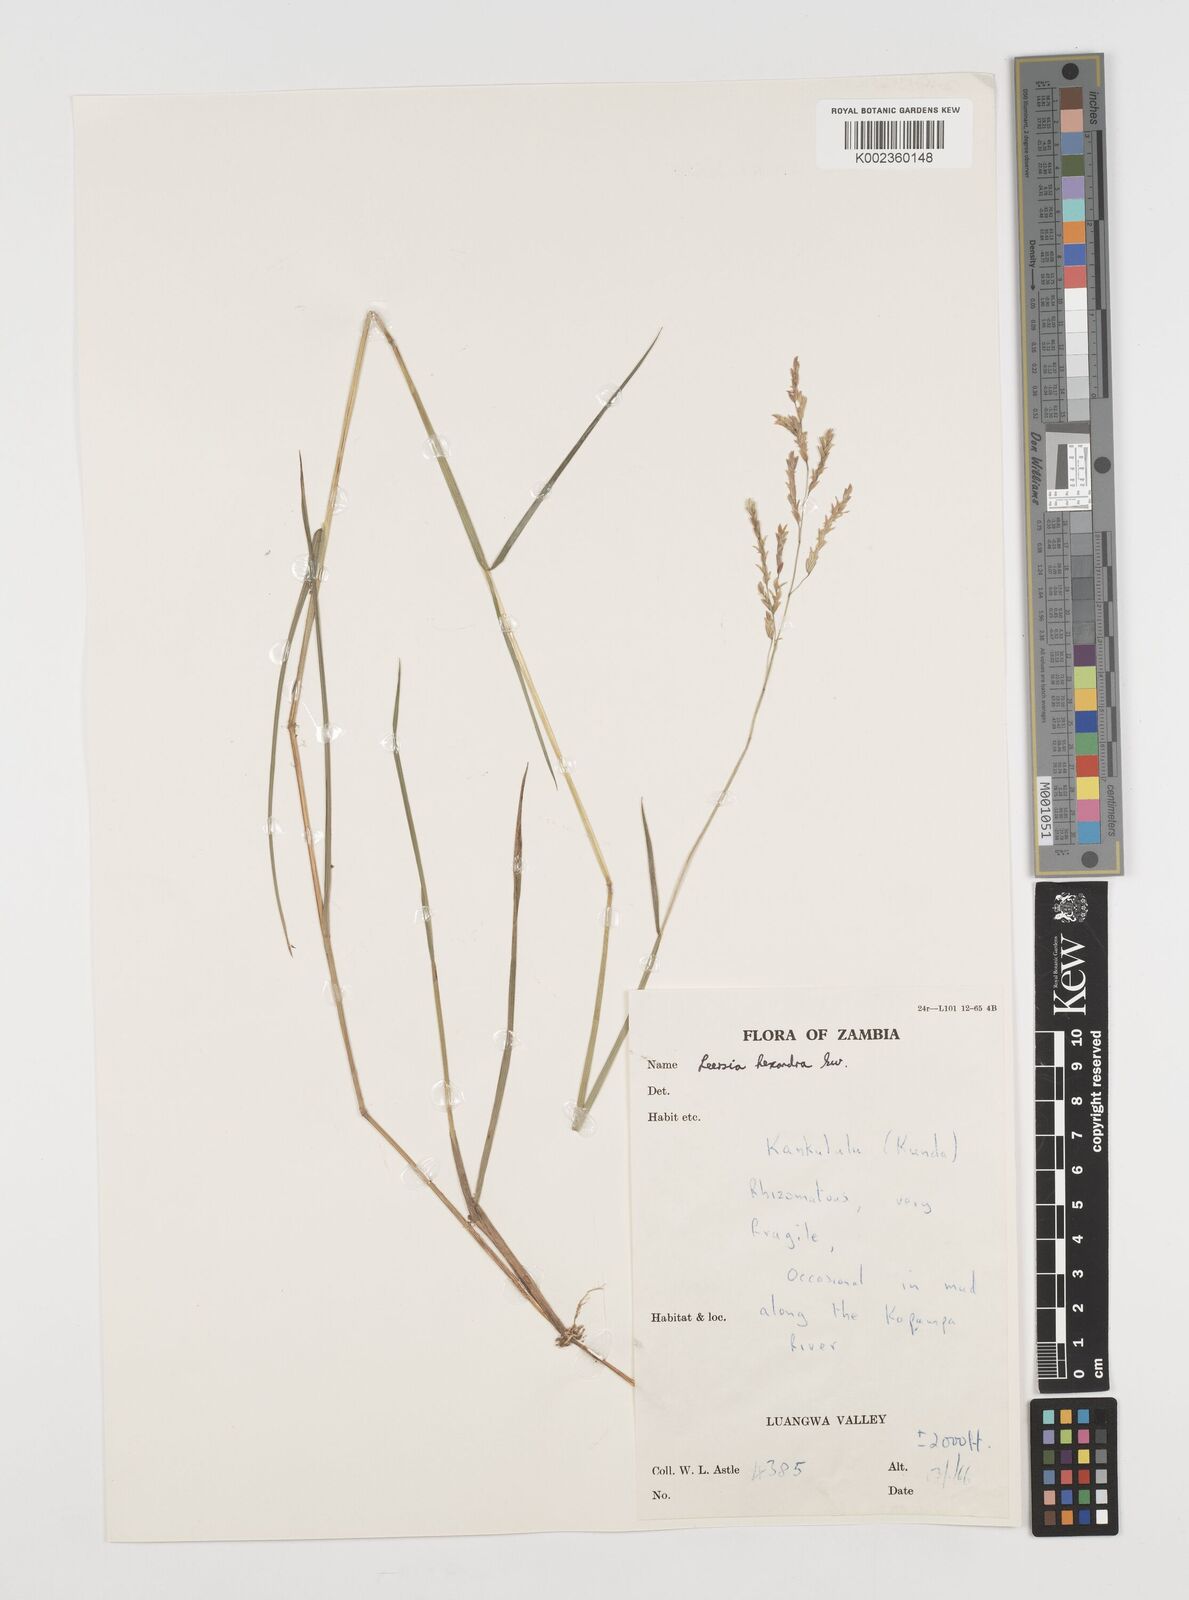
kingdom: Plantae
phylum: Tracheophyta
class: Liliopsida
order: Poales
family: Poaceae
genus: Leersia
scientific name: Leersia hexandra
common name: Southern cut grass
